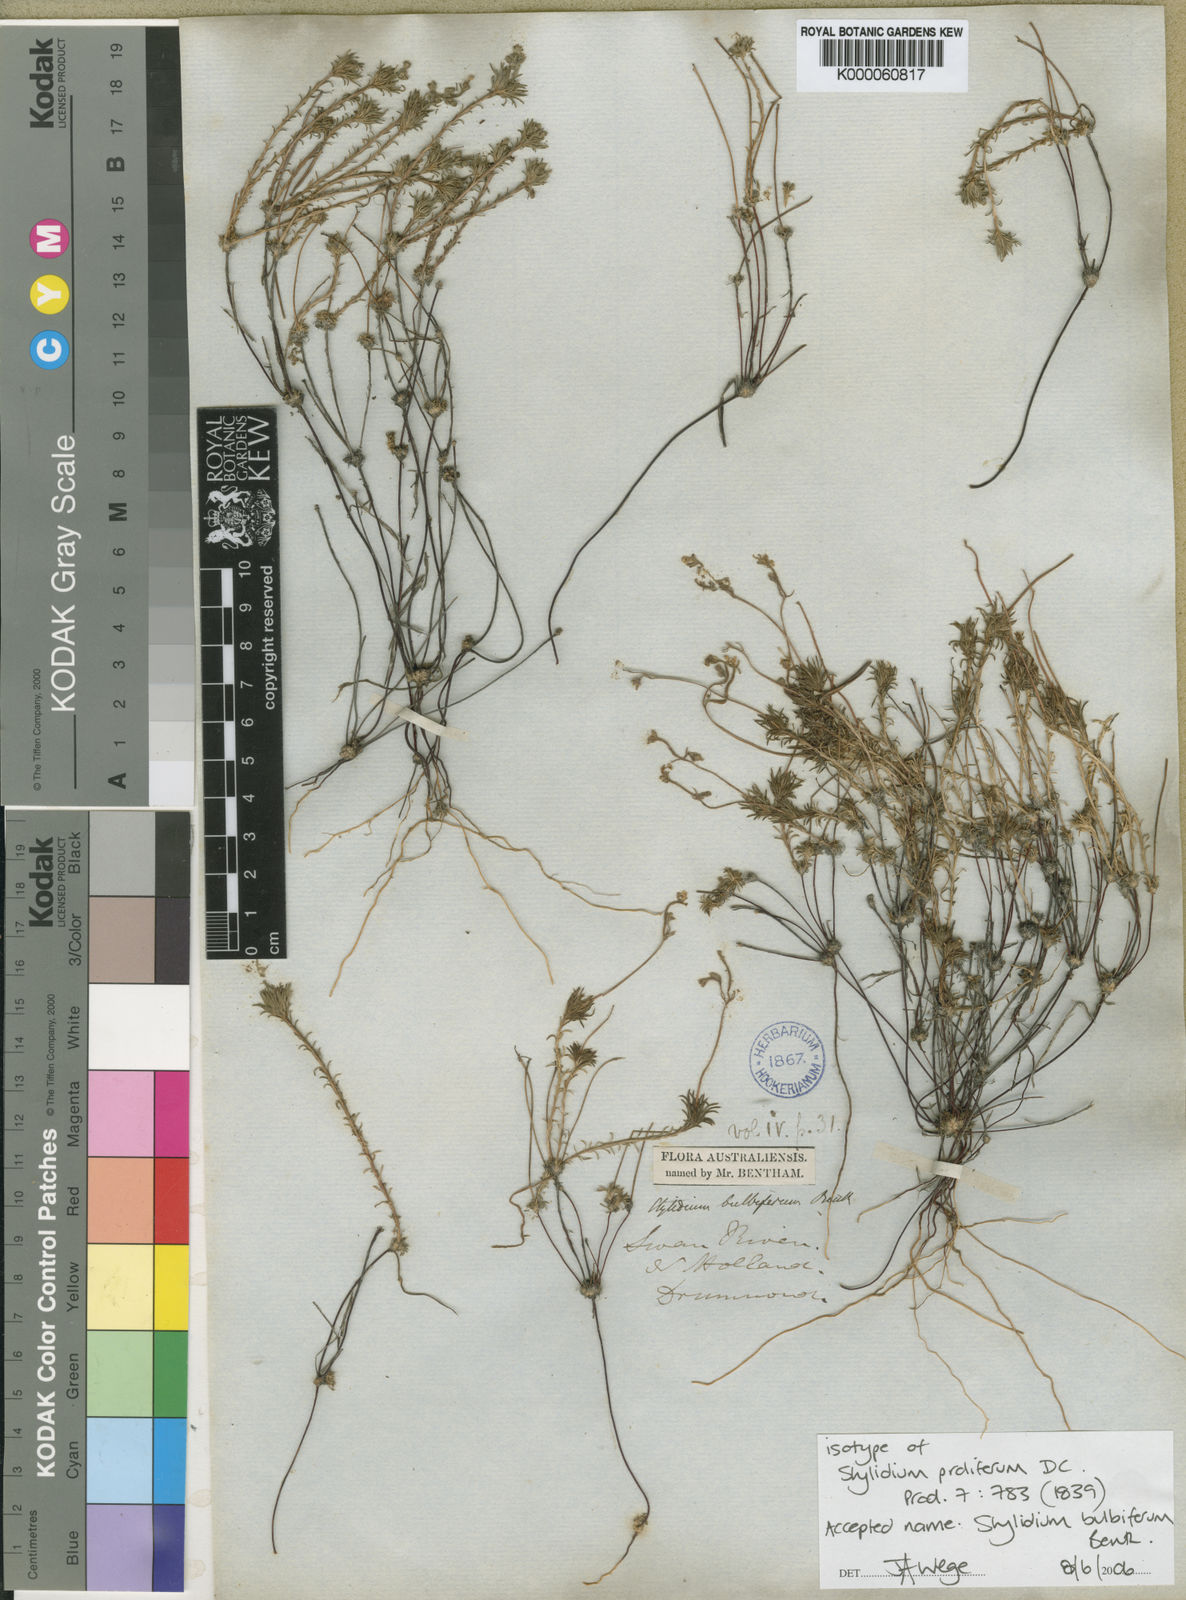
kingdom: Plantae
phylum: Tracheophyta
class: Magnoliopsida
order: Asterales
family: Stylidiaceae
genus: Stylidium
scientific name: Stylidium bulbiferum
